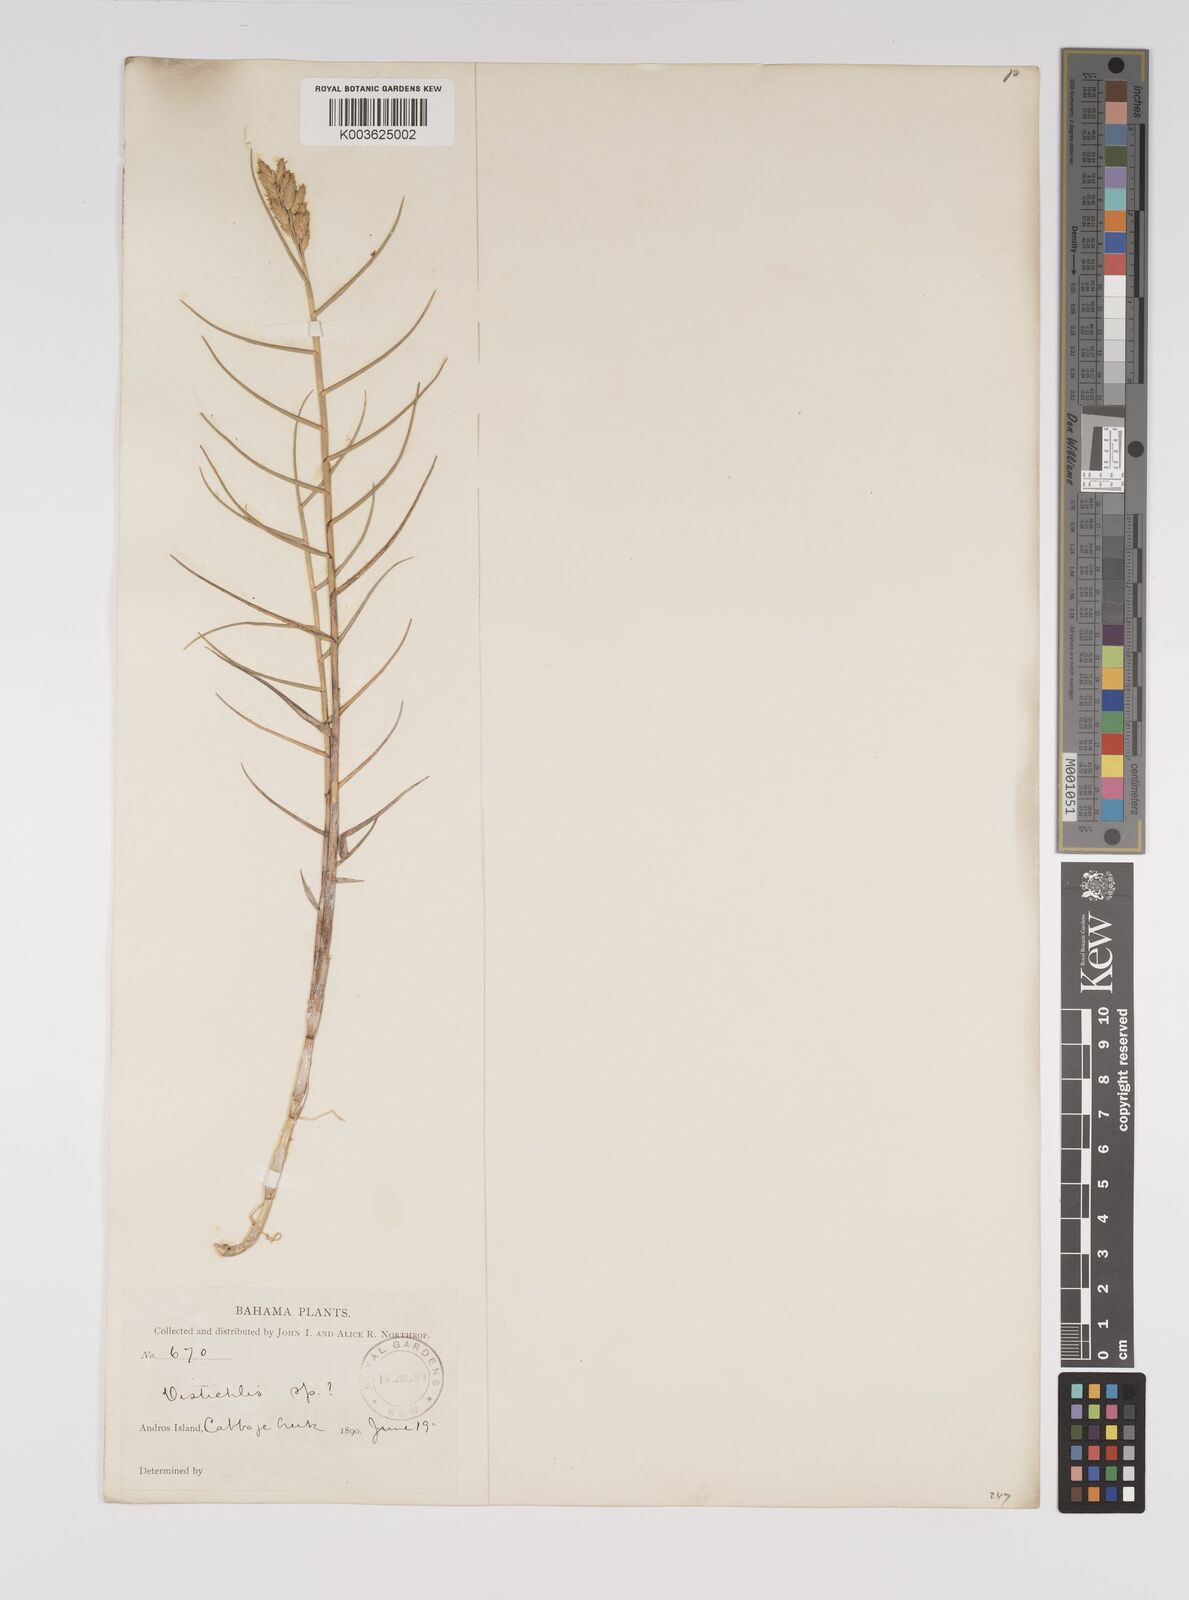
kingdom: Plantae
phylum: Tracheophyta
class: Liliopsida
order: Poales
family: Poaceae
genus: Distichlis
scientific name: Distichlis spicata
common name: Saltgrass
